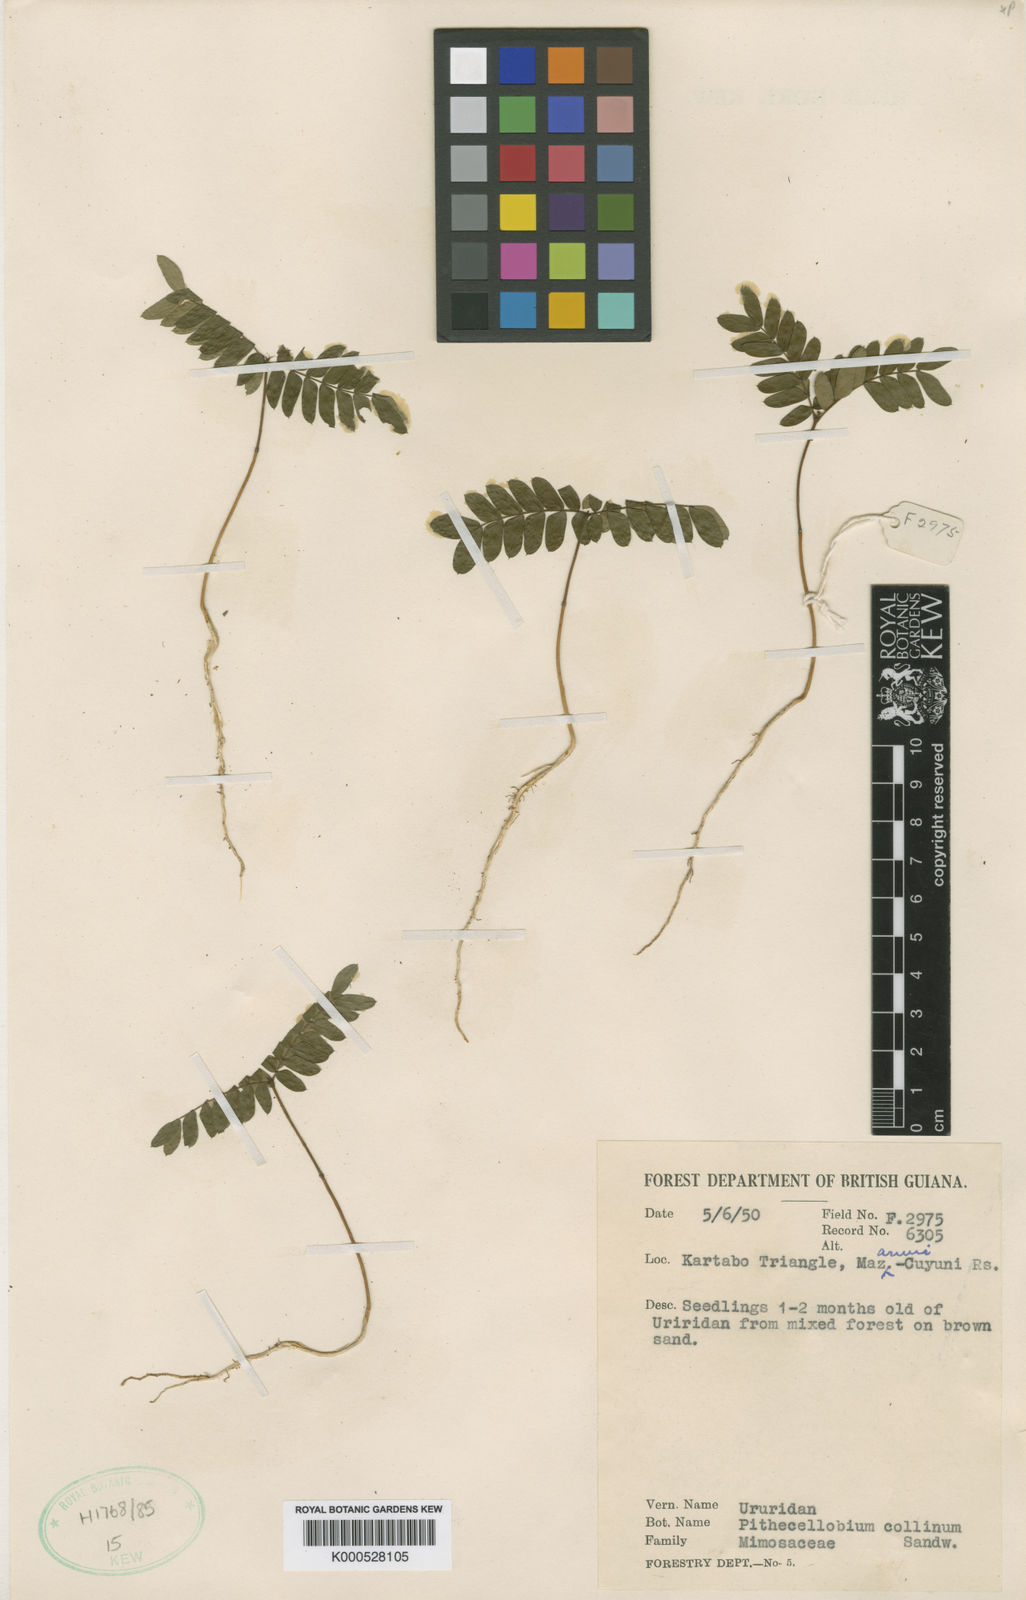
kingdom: Plantae
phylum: Tracheophyta
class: Magnoliopsida
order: Fabales
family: Fabaceae
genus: Zygia
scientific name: Zygia collina
